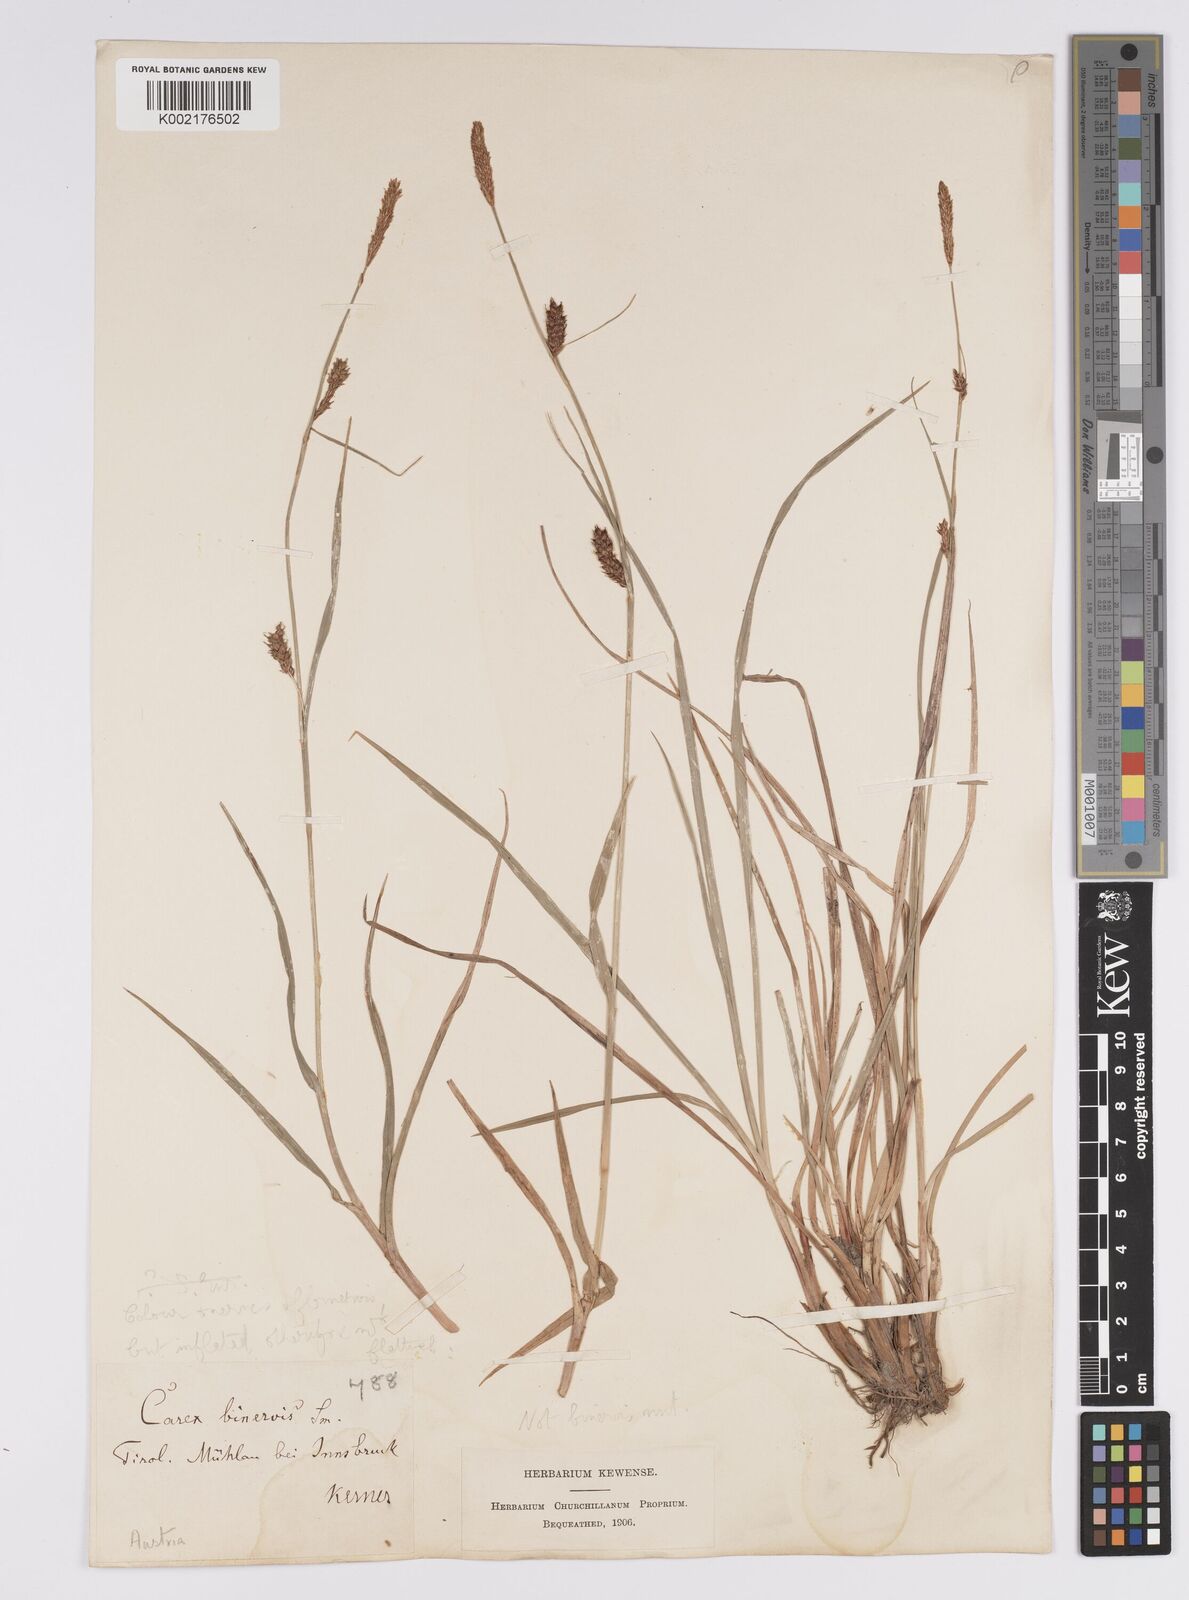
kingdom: Plantae
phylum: Tracheophyta
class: Liliopsida
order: Poales
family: Cyperaceae
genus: Carex
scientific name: Carex distans
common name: Distant sedge
